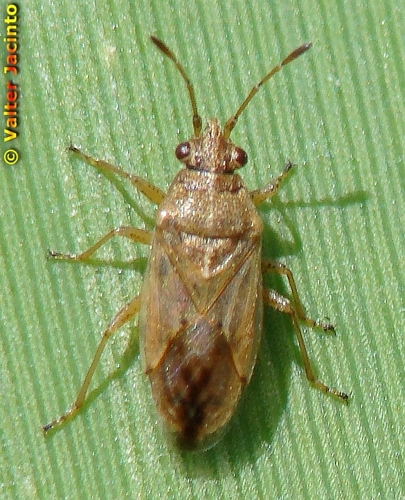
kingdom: Animalia
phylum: Arthropoda
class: Insecta
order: Hemiptera
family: Lygaeidae
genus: Nysius
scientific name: Nysius
